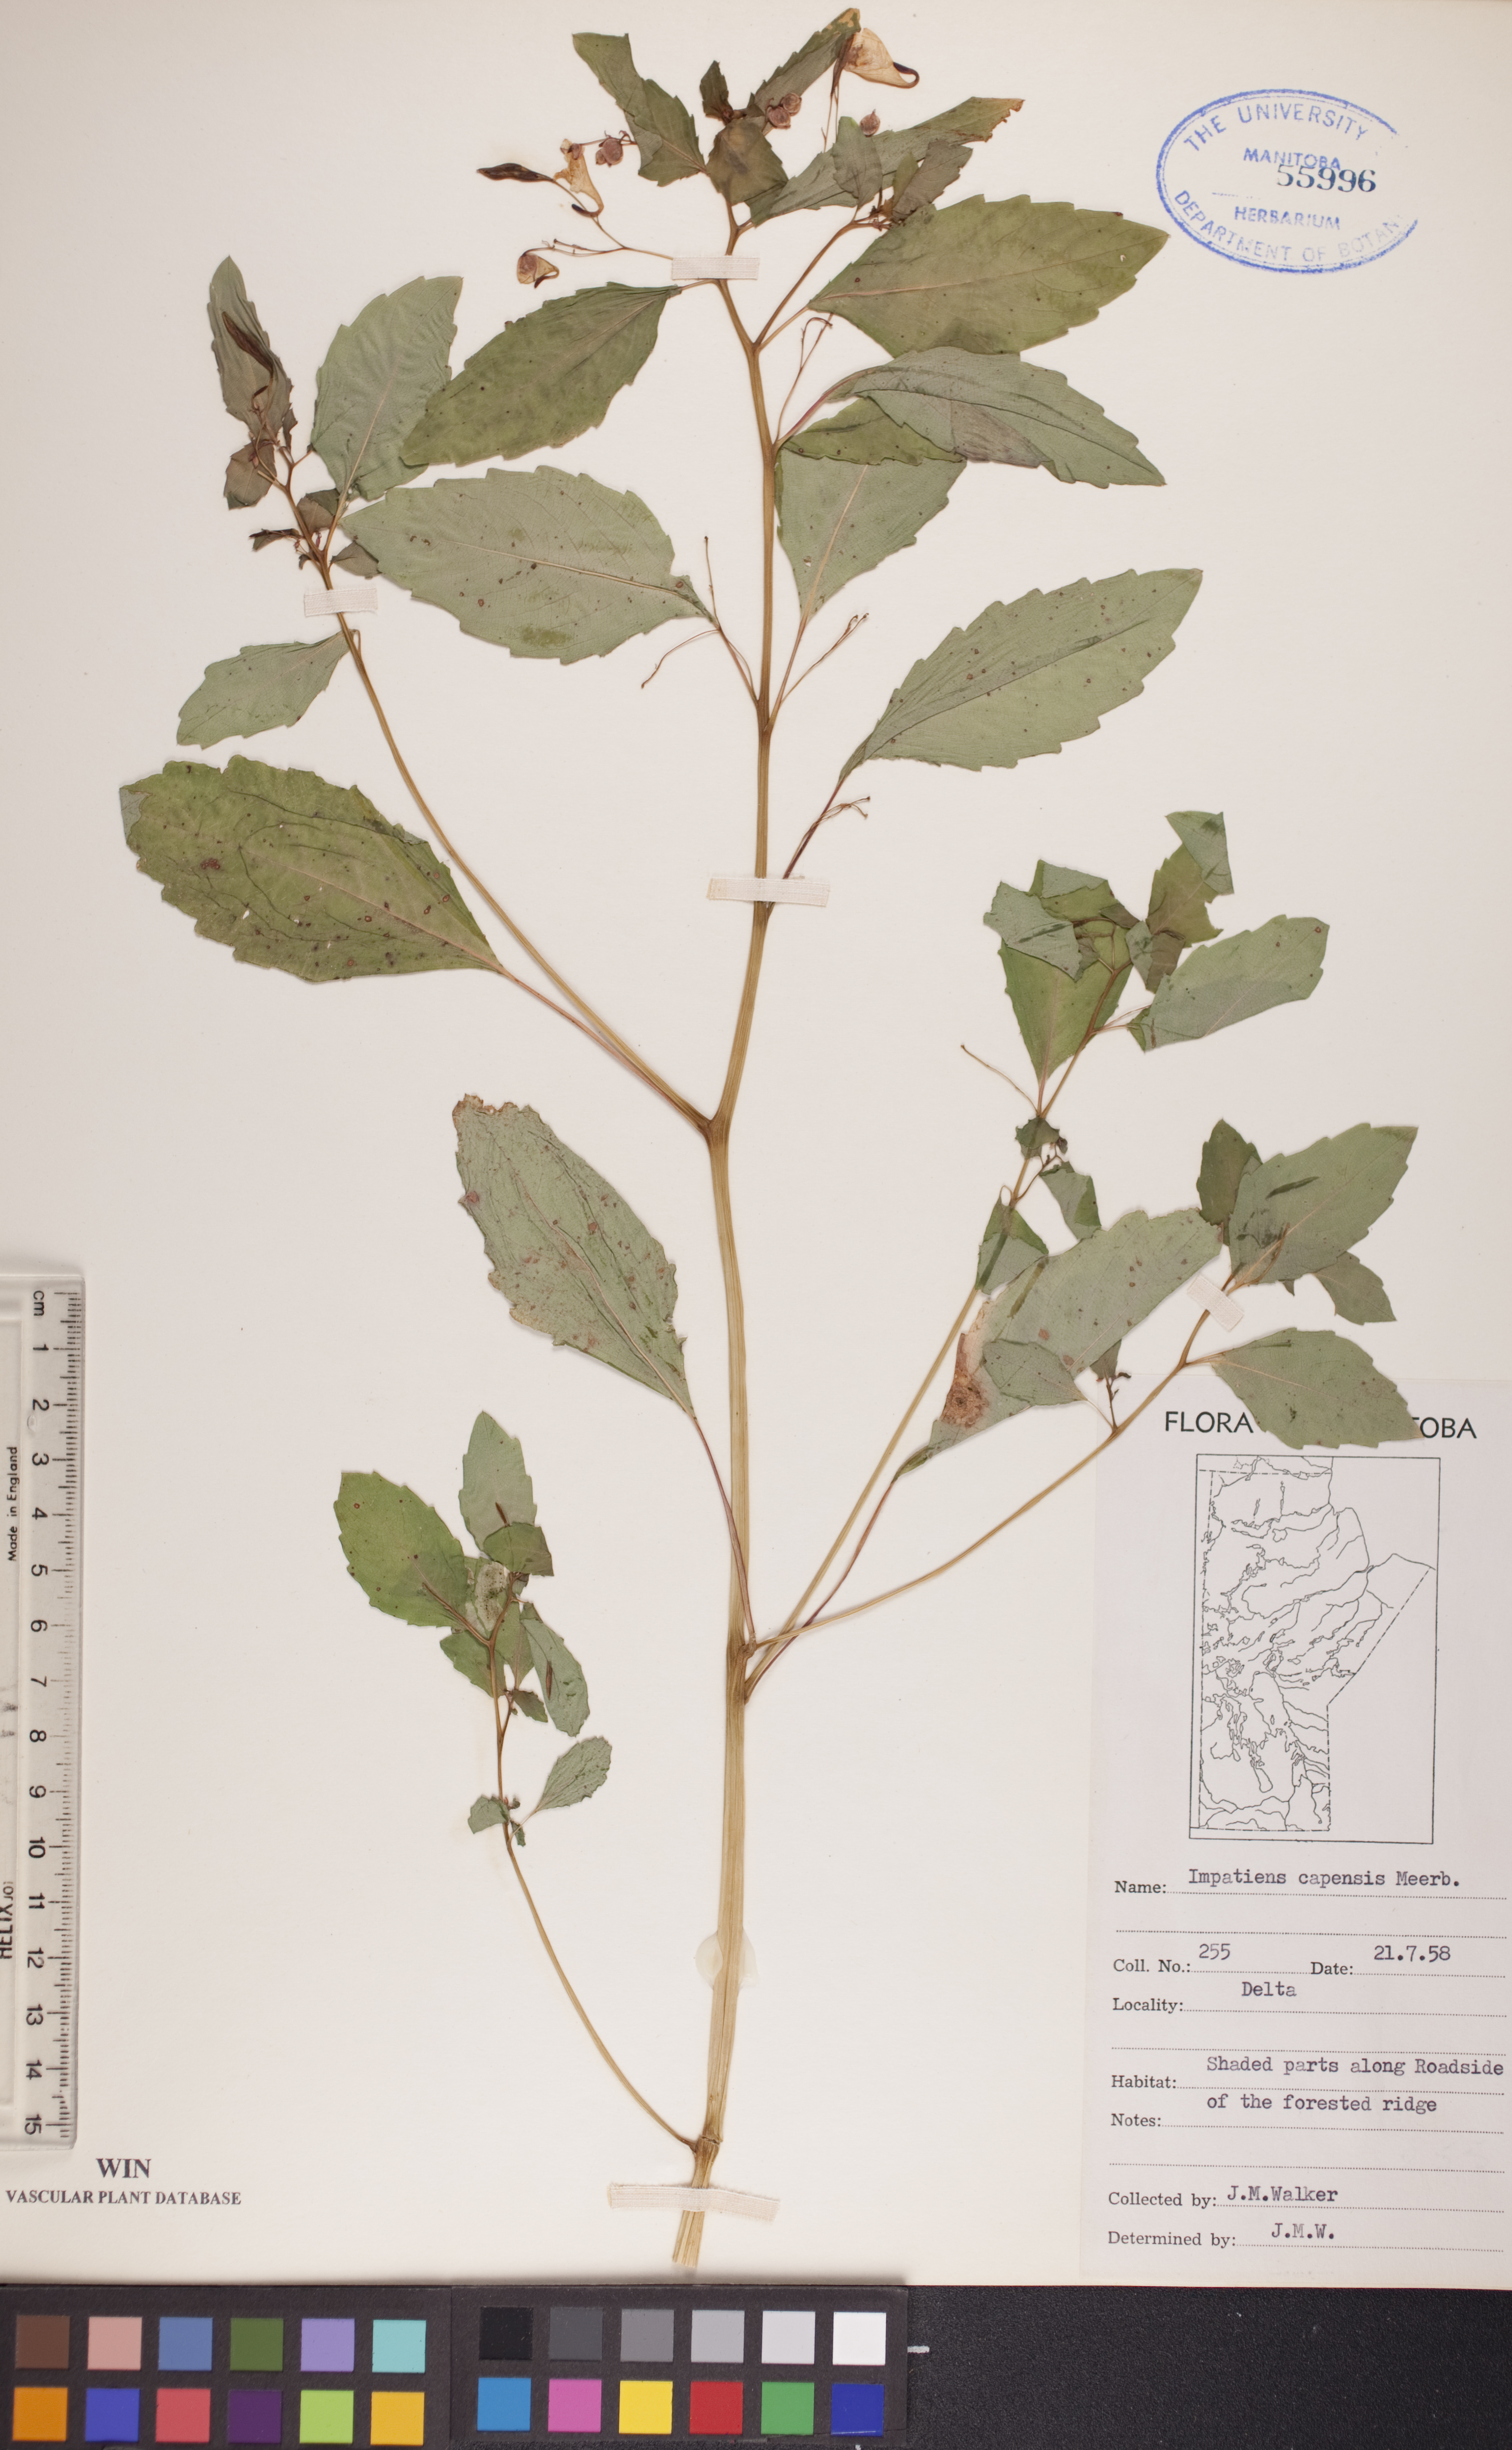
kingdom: Plantae
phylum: Tracheophyta
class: Magnoliopsida
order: Ericales
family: Balsaminaceae
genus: Impatiens
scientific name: Impatiens capensis
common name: Orange balsam
